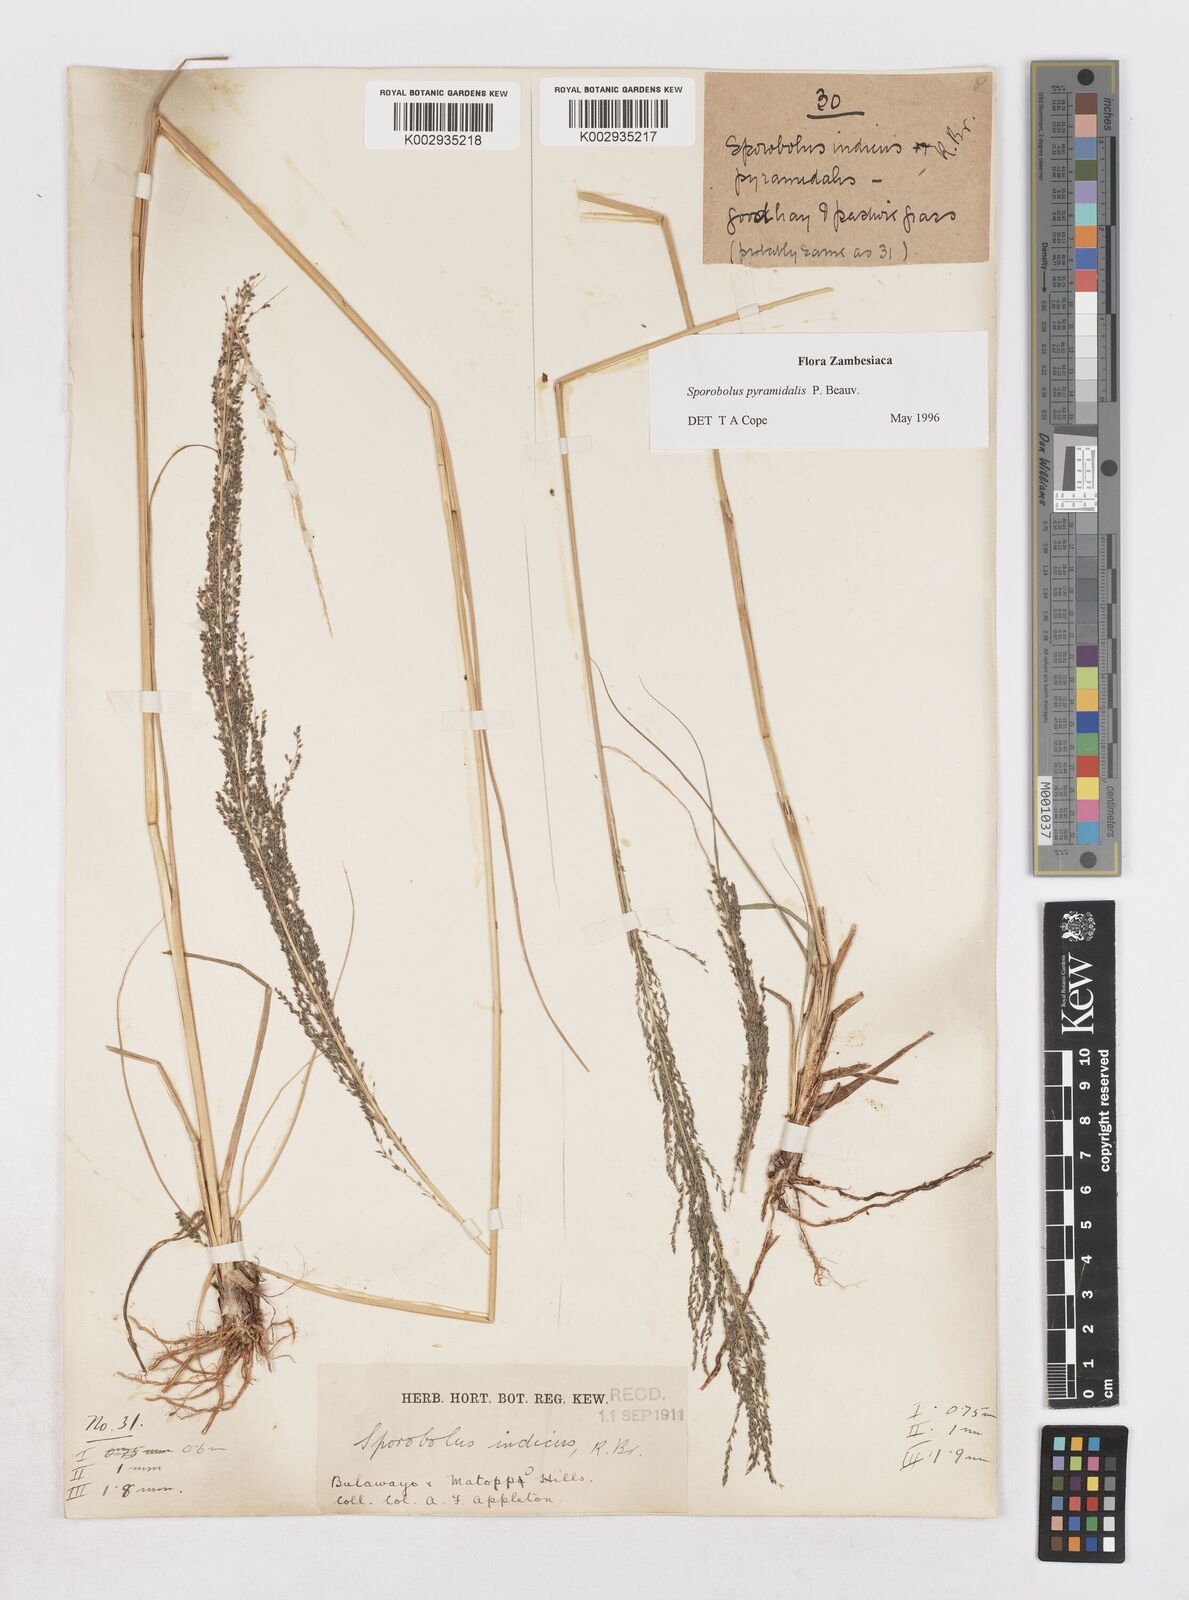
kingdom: Plantae
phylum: Tracheophyta
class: Liliopsida
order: Poales
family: Poaceae
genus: Sporobolus
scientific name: Sporobolus pyramidalis
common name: West indian dropseed
